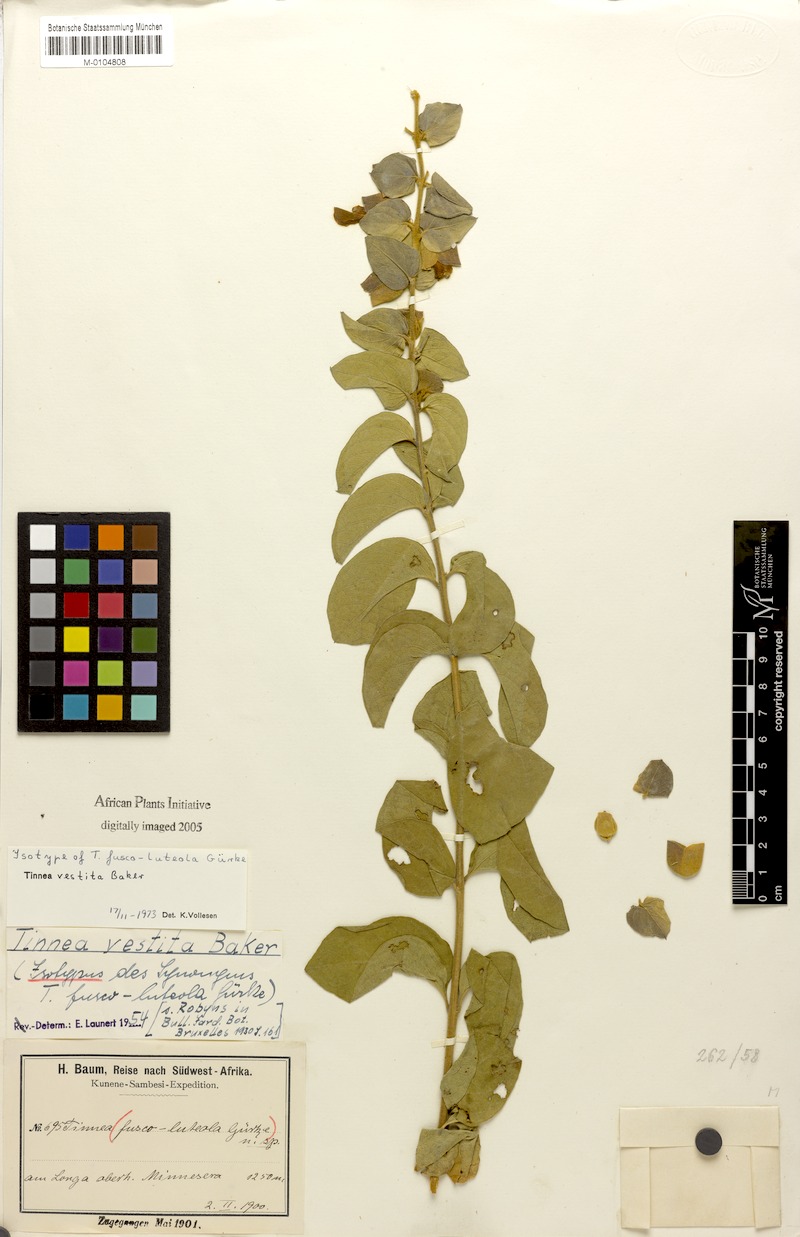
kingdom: Plantae
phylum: Tracheophyta
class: Magnoliopsida
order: Lamiales
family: Lamiaceae
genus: Tinnea
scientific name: Tinnea vestita
